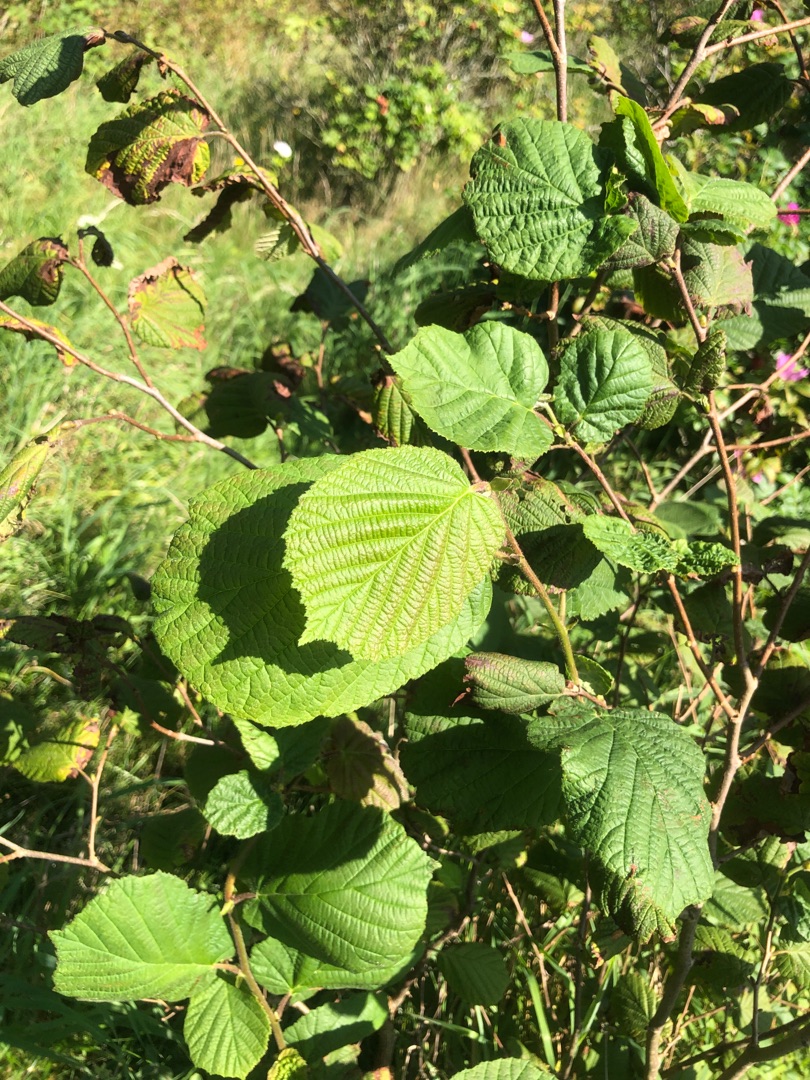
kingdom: Plantae
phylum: Tracheophyta
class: Magnoliopsida
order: Fagales
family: Betulaceae
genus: Corylus
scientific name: Corylus avellana
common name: Hassel
